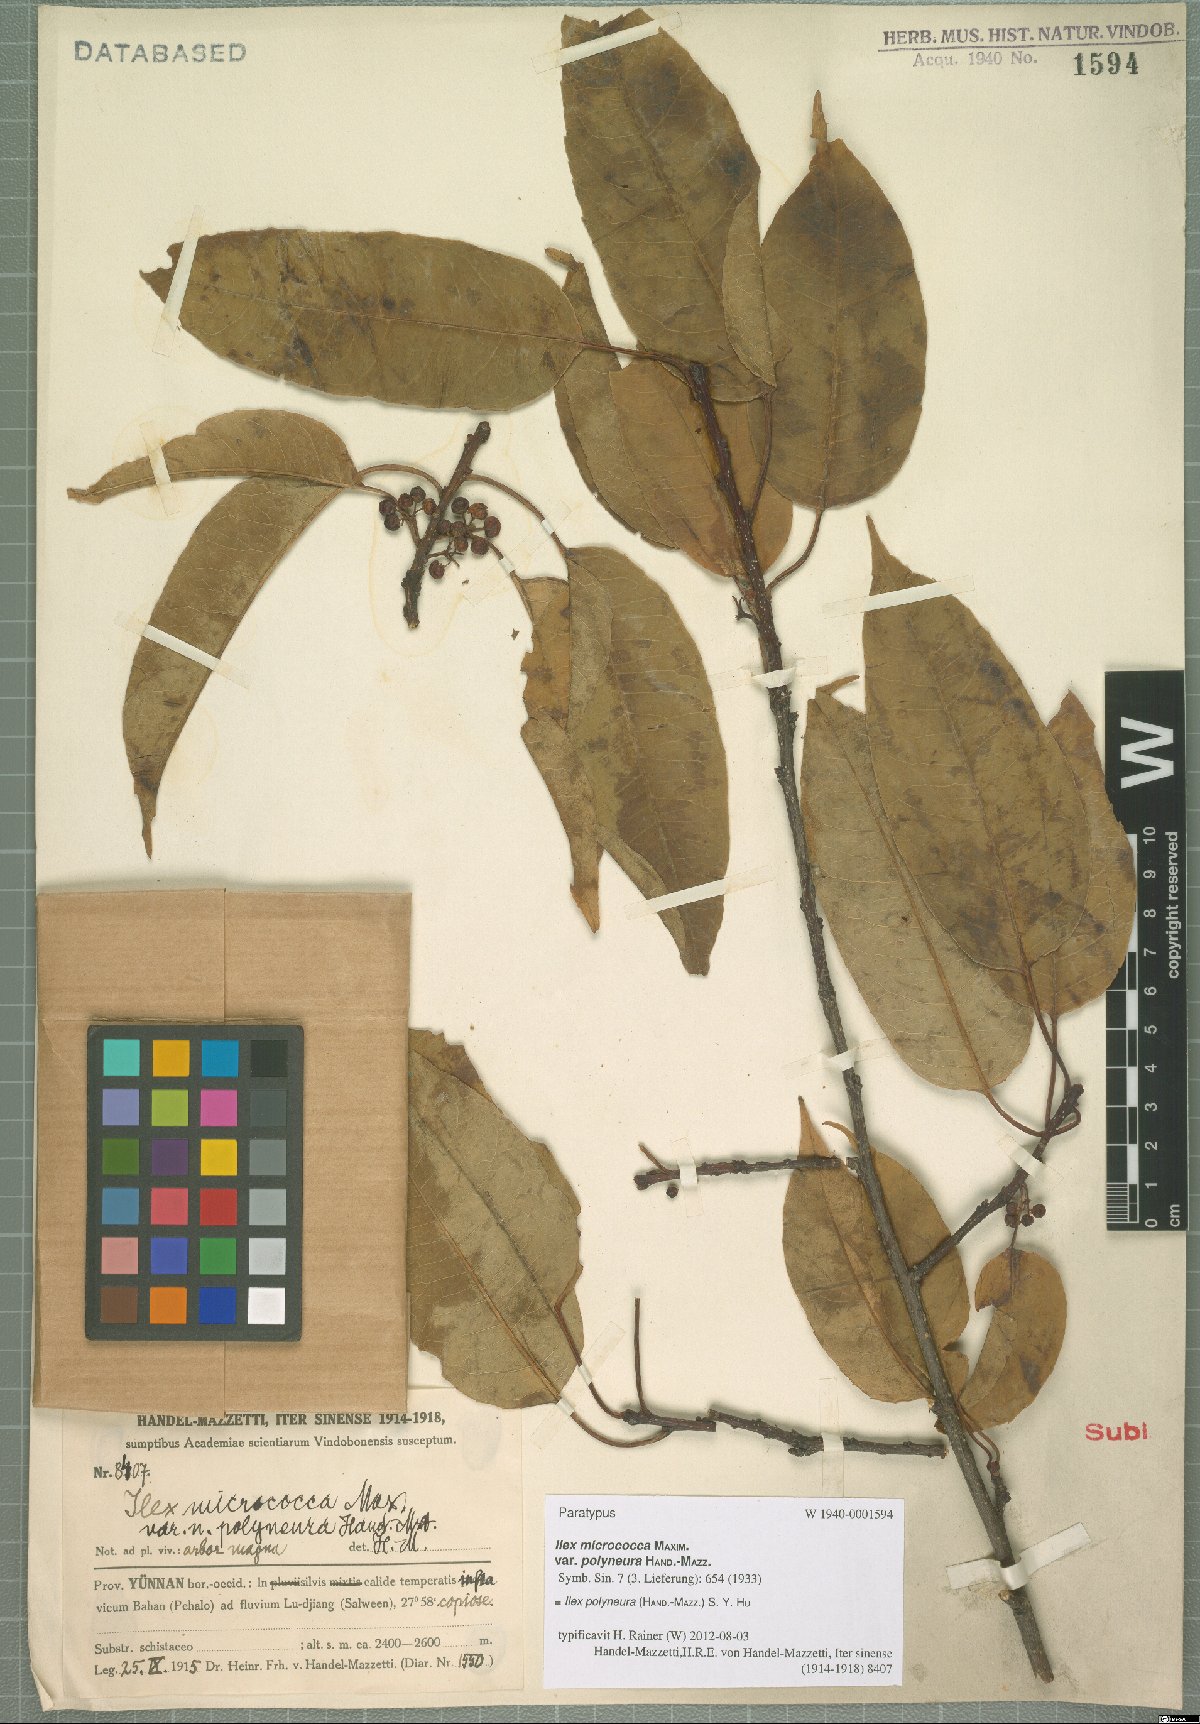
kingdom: Plantae
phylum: Tracheophyta
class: Magnoliopsida
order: Aquifoliales
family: Aquifoliaceae
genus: Ilex
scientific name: Ilex micrococca
